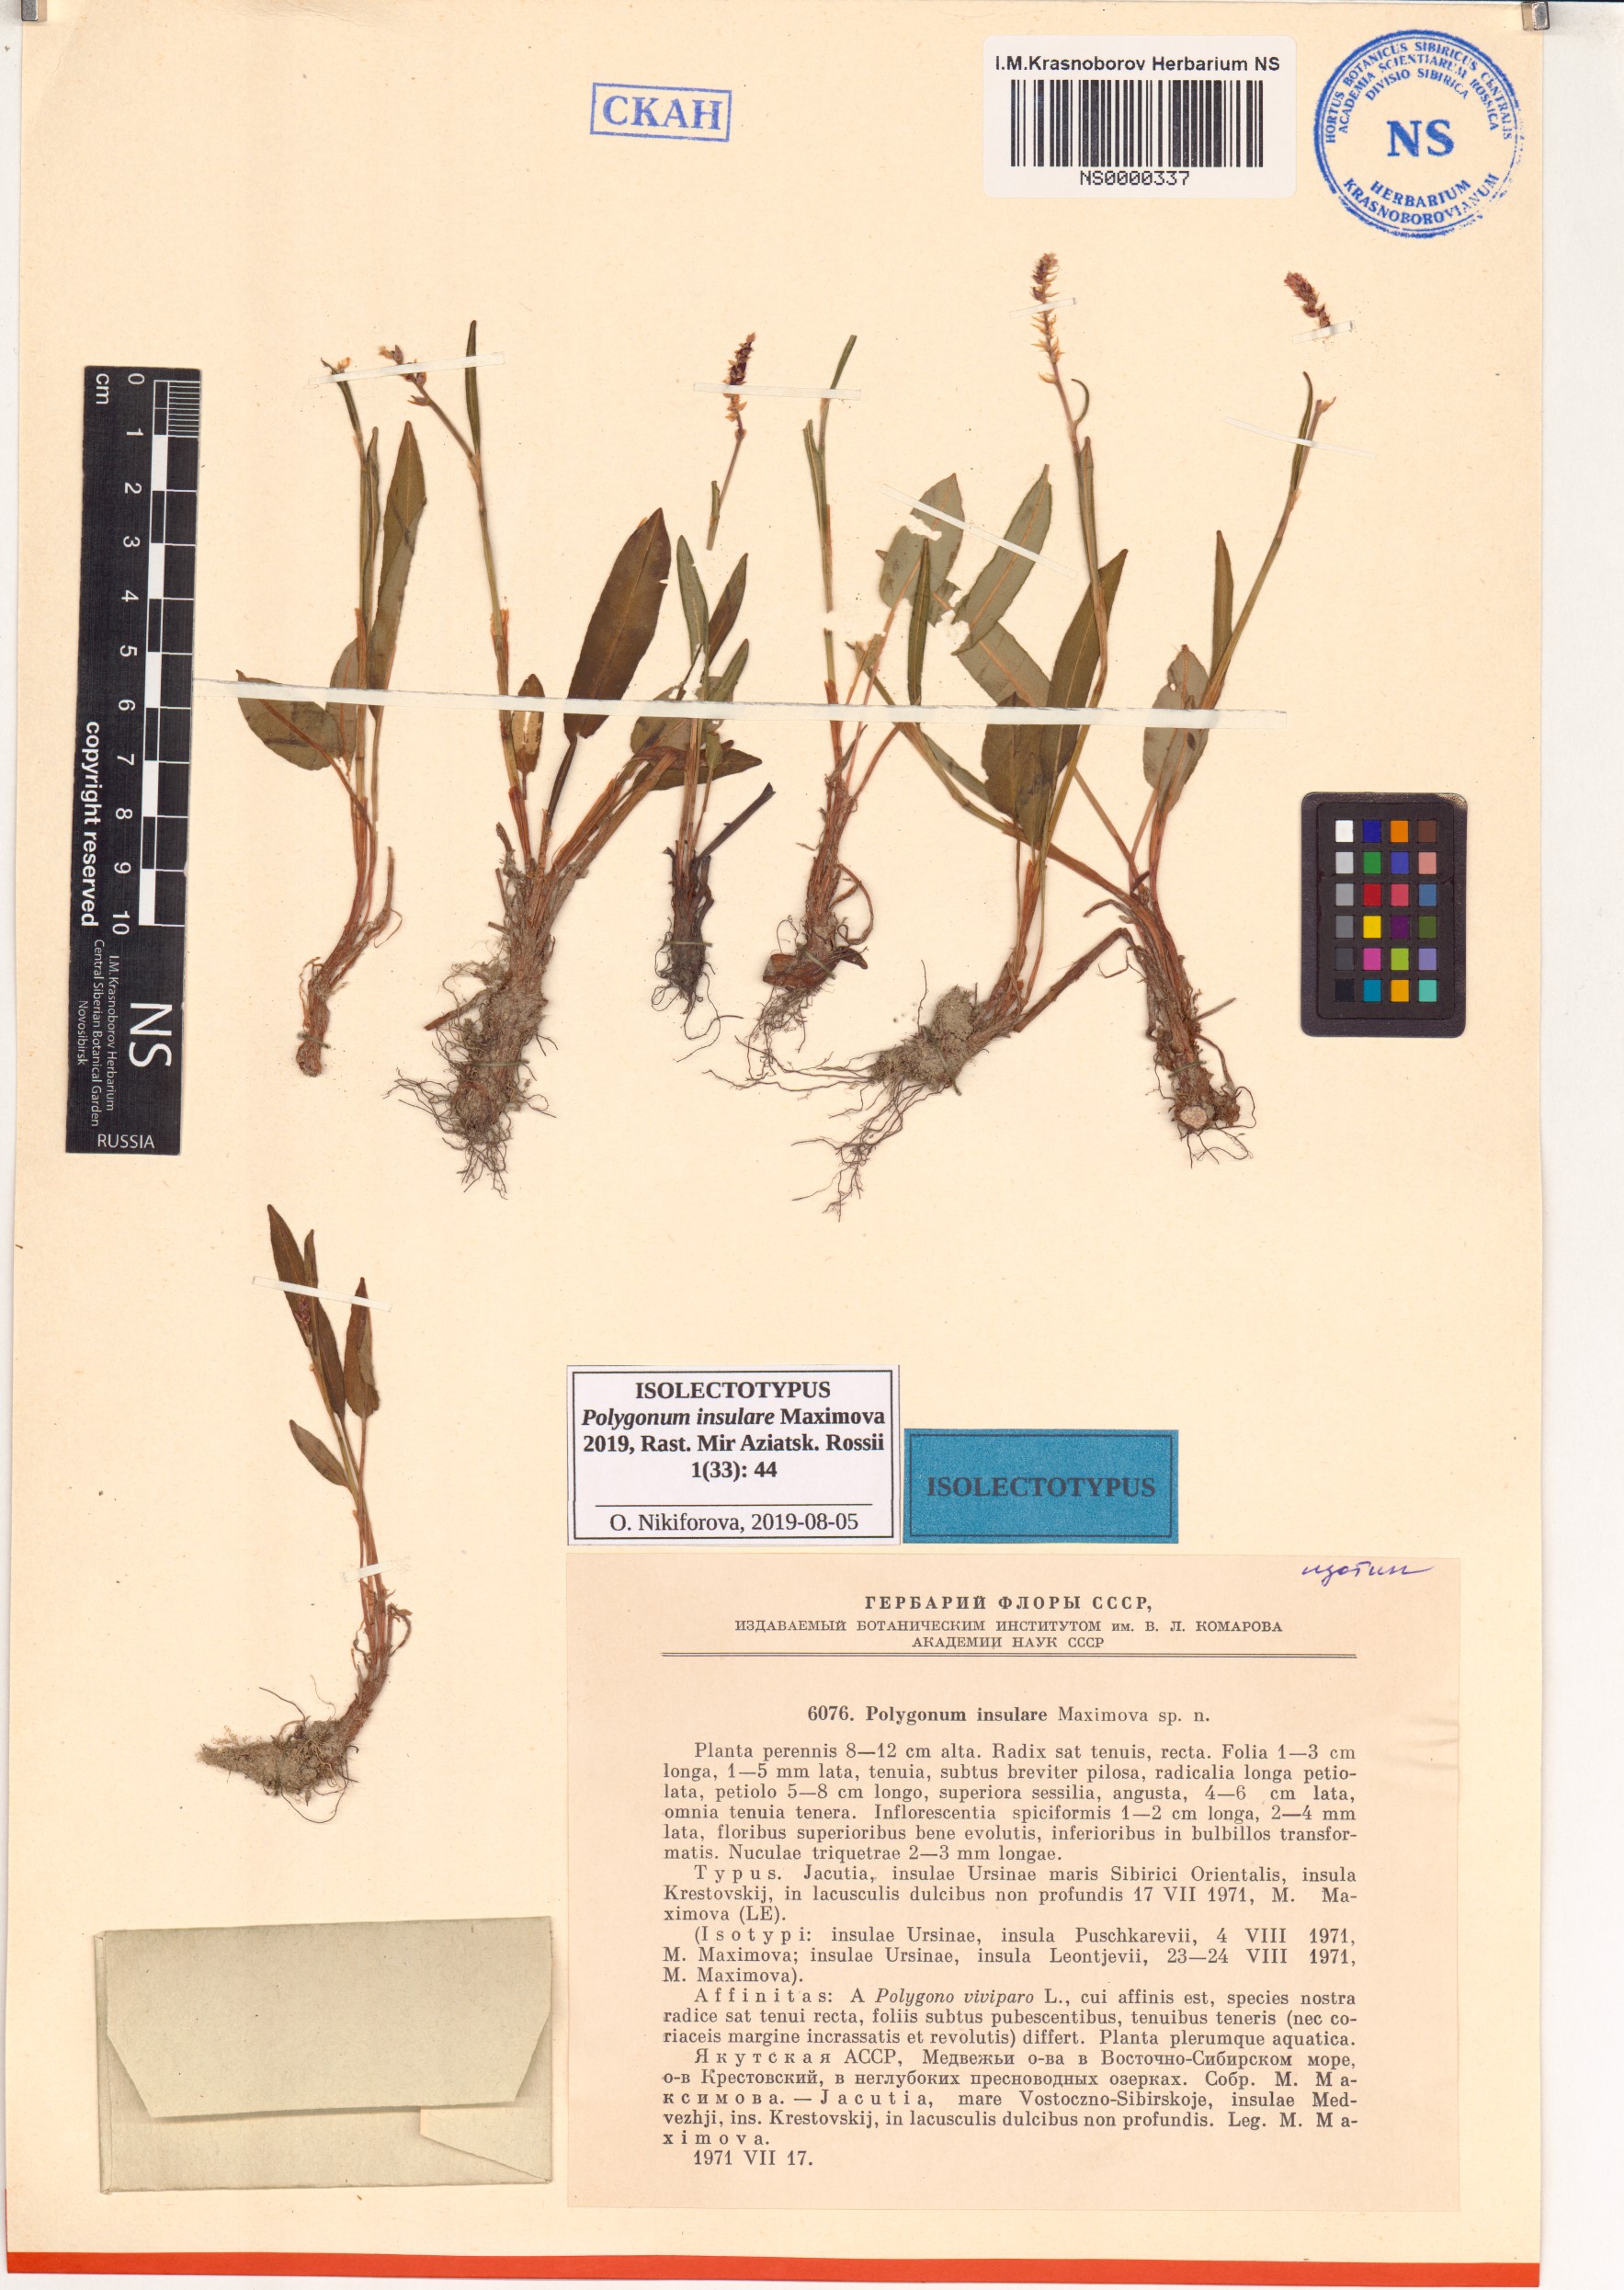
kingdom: Plantae
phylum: Tracheophyta
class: Magnoliopsida
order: Caryophyllales
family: Polygonaceae
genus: Bistorta
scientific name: Bistorta vivipara
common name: Alpine bistort
